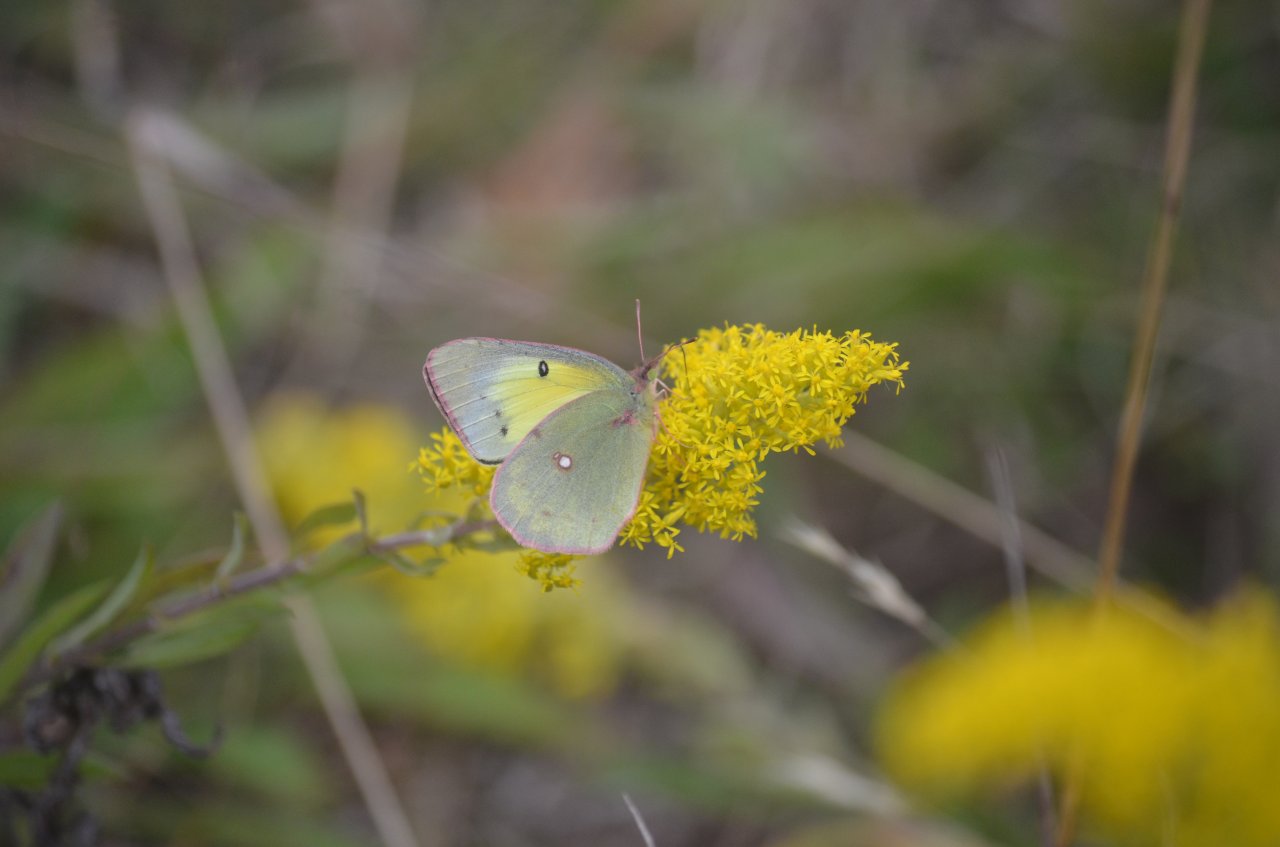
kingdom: Animalia
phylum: Arthropoda
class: Insecta
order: Lepidoptera
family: Pieridae
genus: Colias
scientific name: Colias
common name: Clouded Yellows
